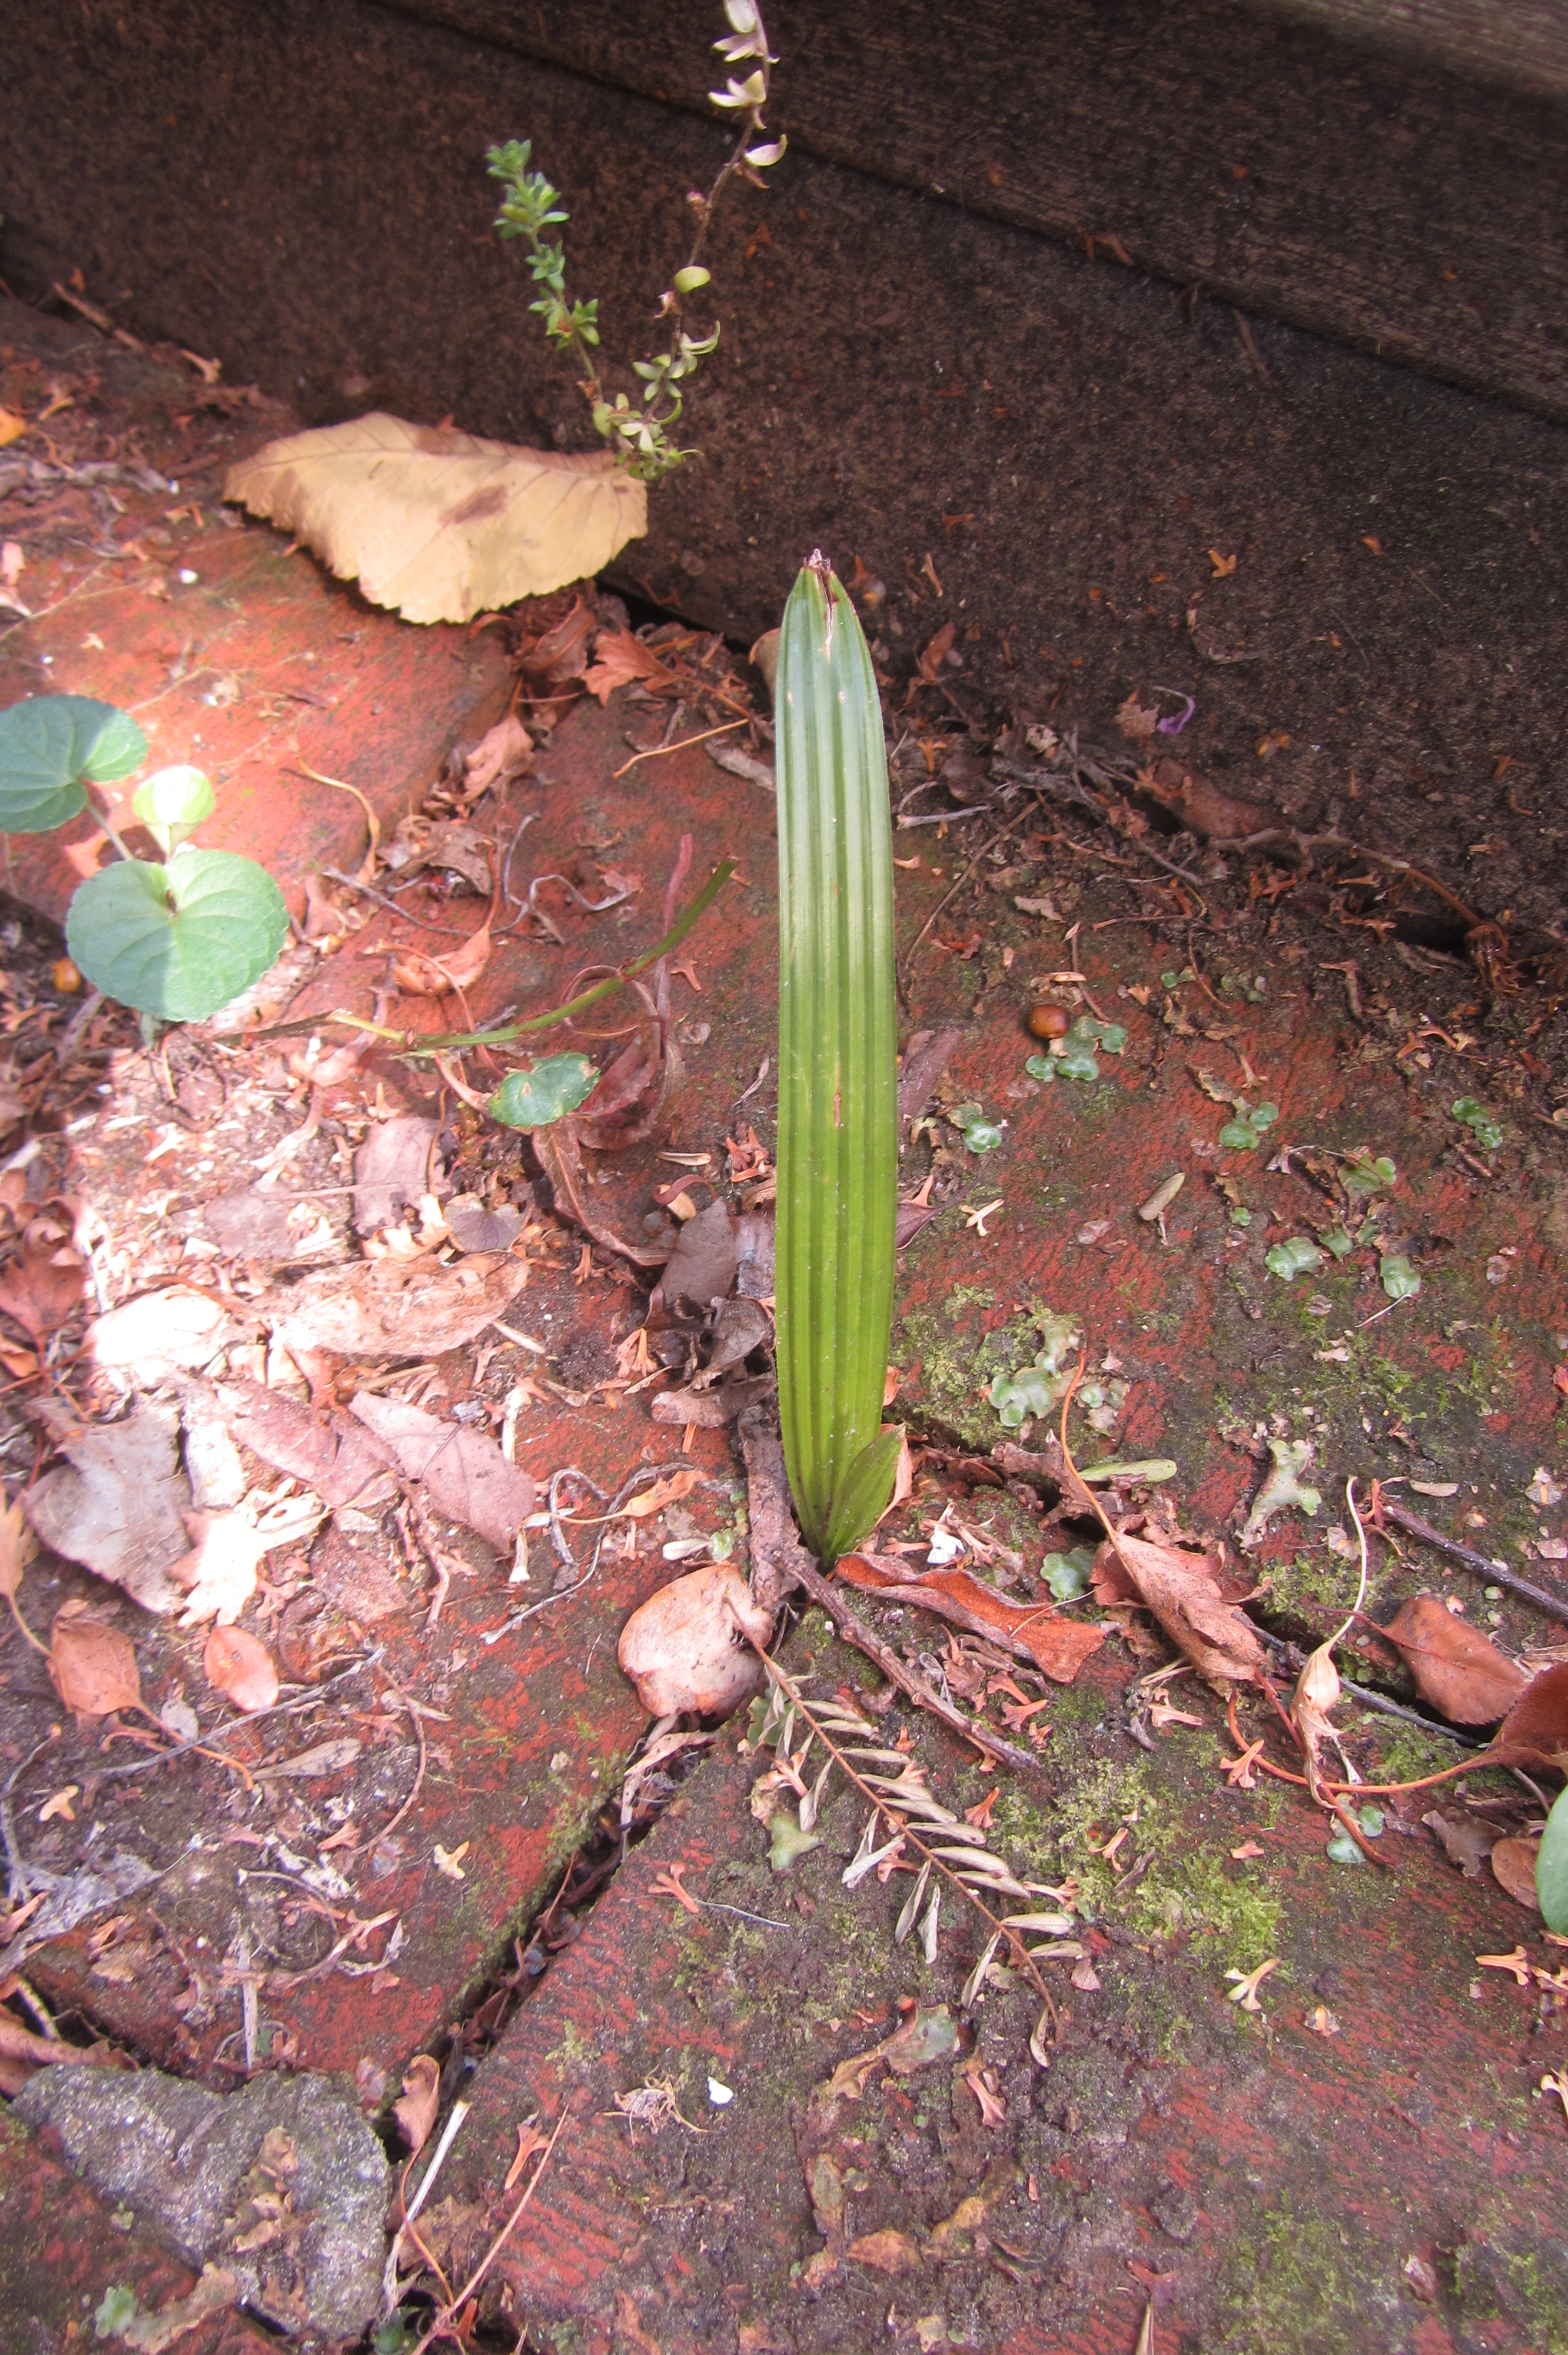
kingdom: Plantae
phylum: Tracheophyta
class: Liliopsida
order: Arecales
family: Arecaceae
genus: Trachycarpus
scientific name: Trachycarpus fortunei
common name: Chusan palm
